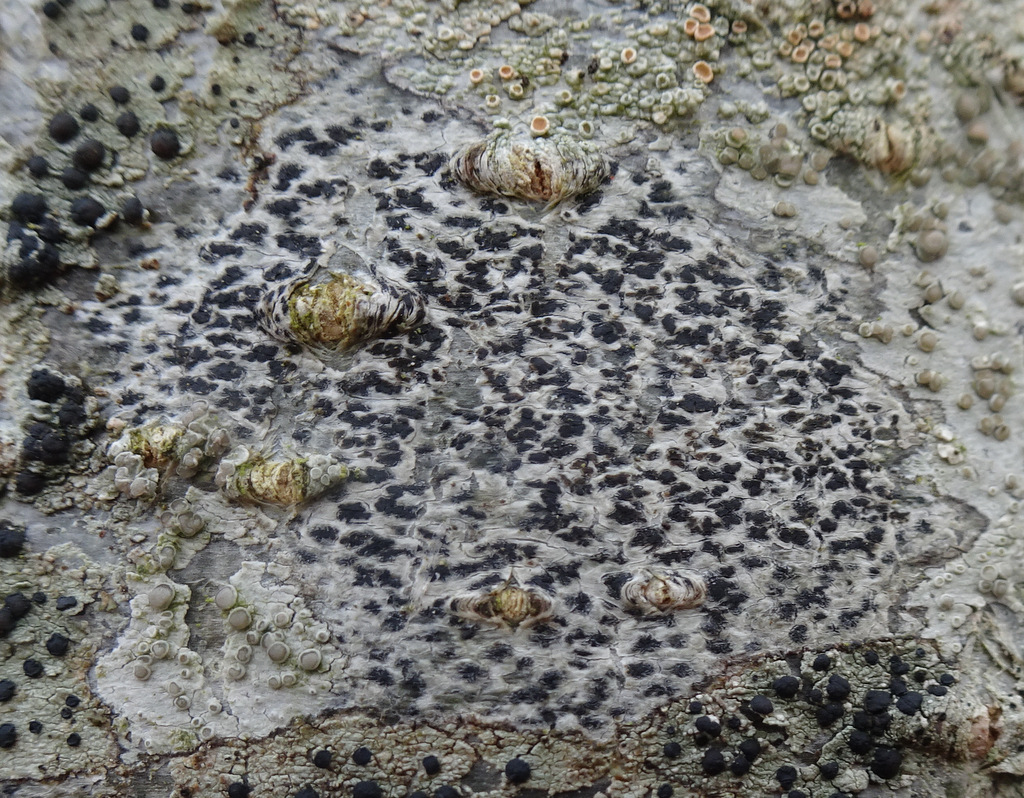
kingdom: Fungi
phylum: Ascomycota
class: Arthoniomycetes
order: Arthoniales
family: Arthoniaceae
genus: Arthonia
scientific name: Arthonia radiata
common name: stjerne-pletlav
